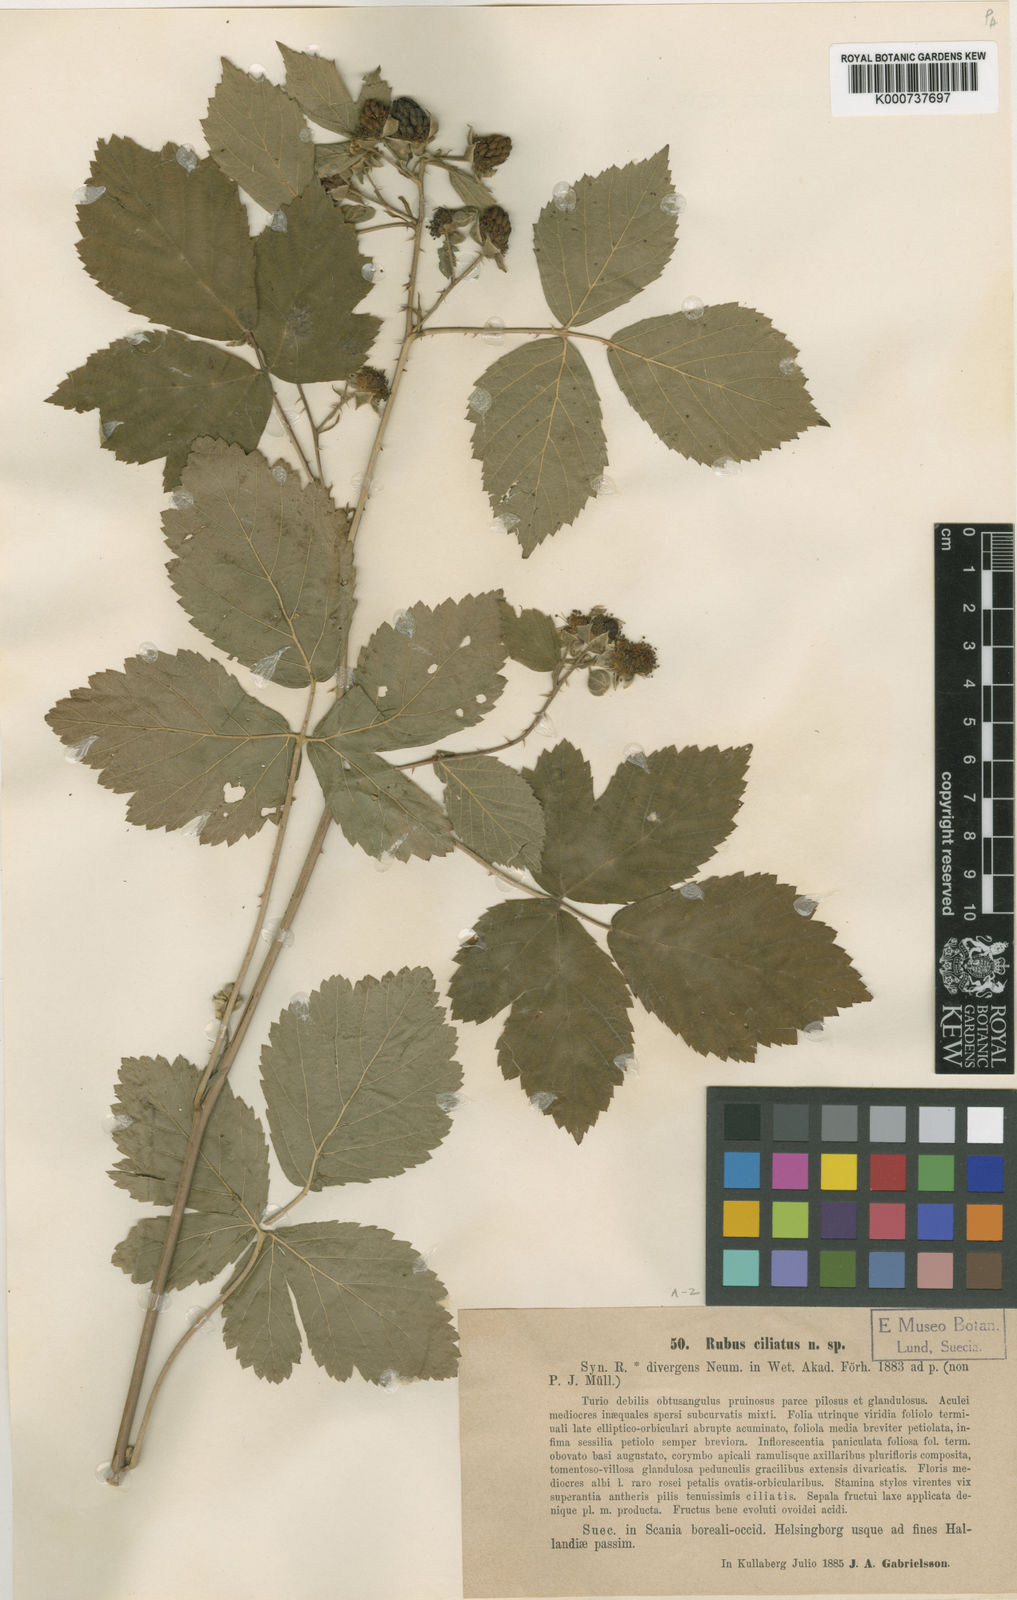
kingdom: Plantae
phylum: Tracheophyta
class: Magnoliopsida
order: Rosales
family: Rosaceae
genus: Rubus
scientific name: Rubus
